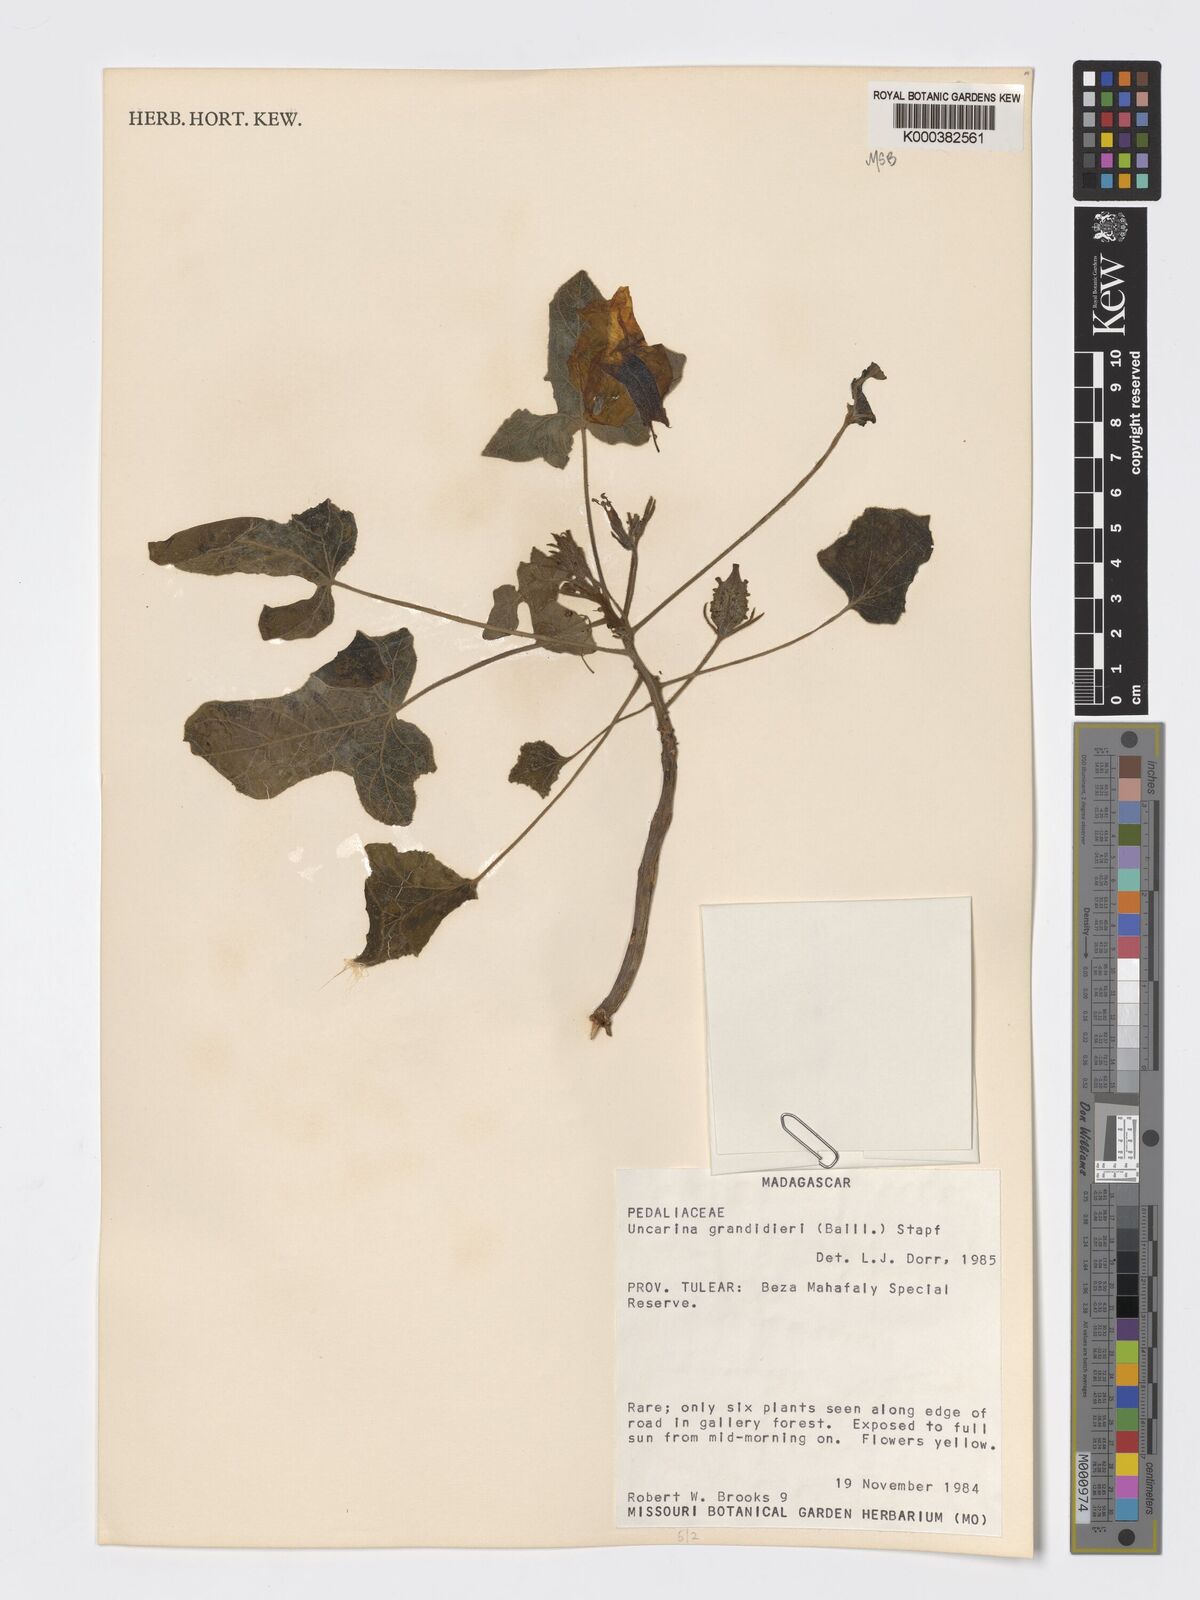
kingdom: Plantae
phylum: Tracheophyta
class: Magnoliopsida
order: Lamiales
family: Pedaliaceae
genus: Uncarina
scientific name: Uncarina
